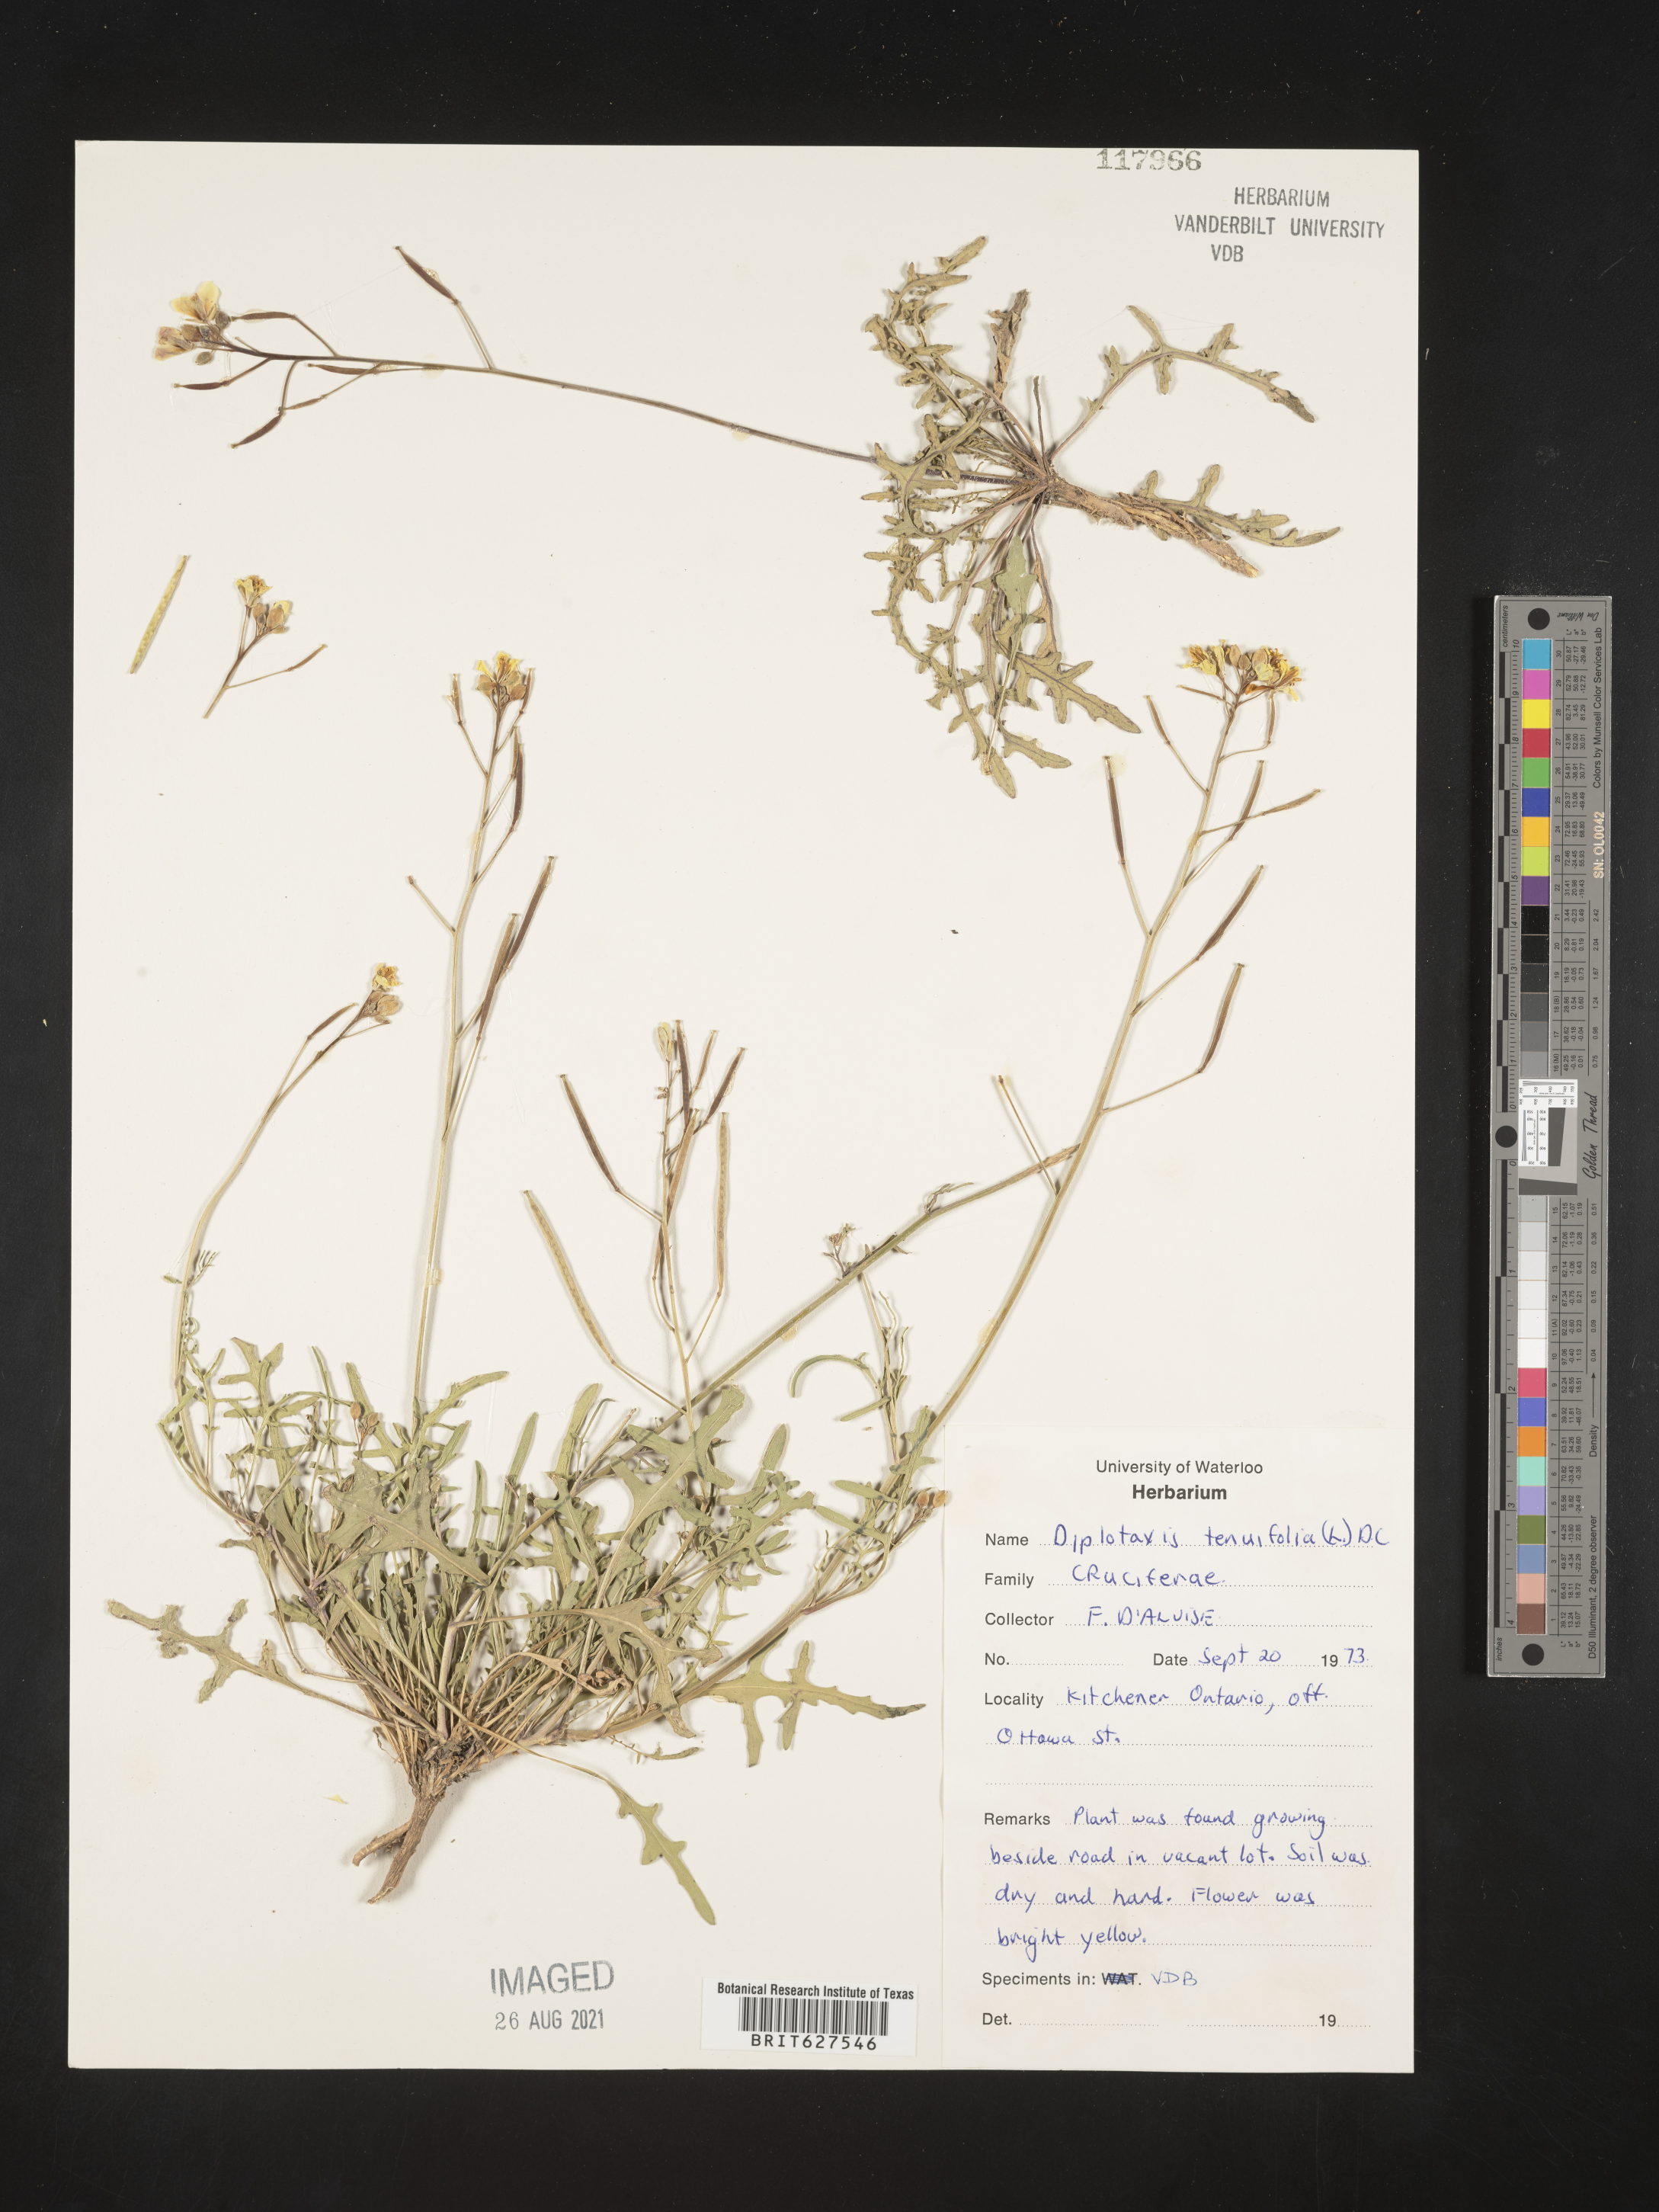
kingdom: Plantae
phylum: Tracheophyta
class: Magnoliopsida
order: Brassicales
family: Brassicaceae
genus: Diplotaxis
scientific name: Diplotaxis tenuifolia
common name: Perennial wall-rocket
